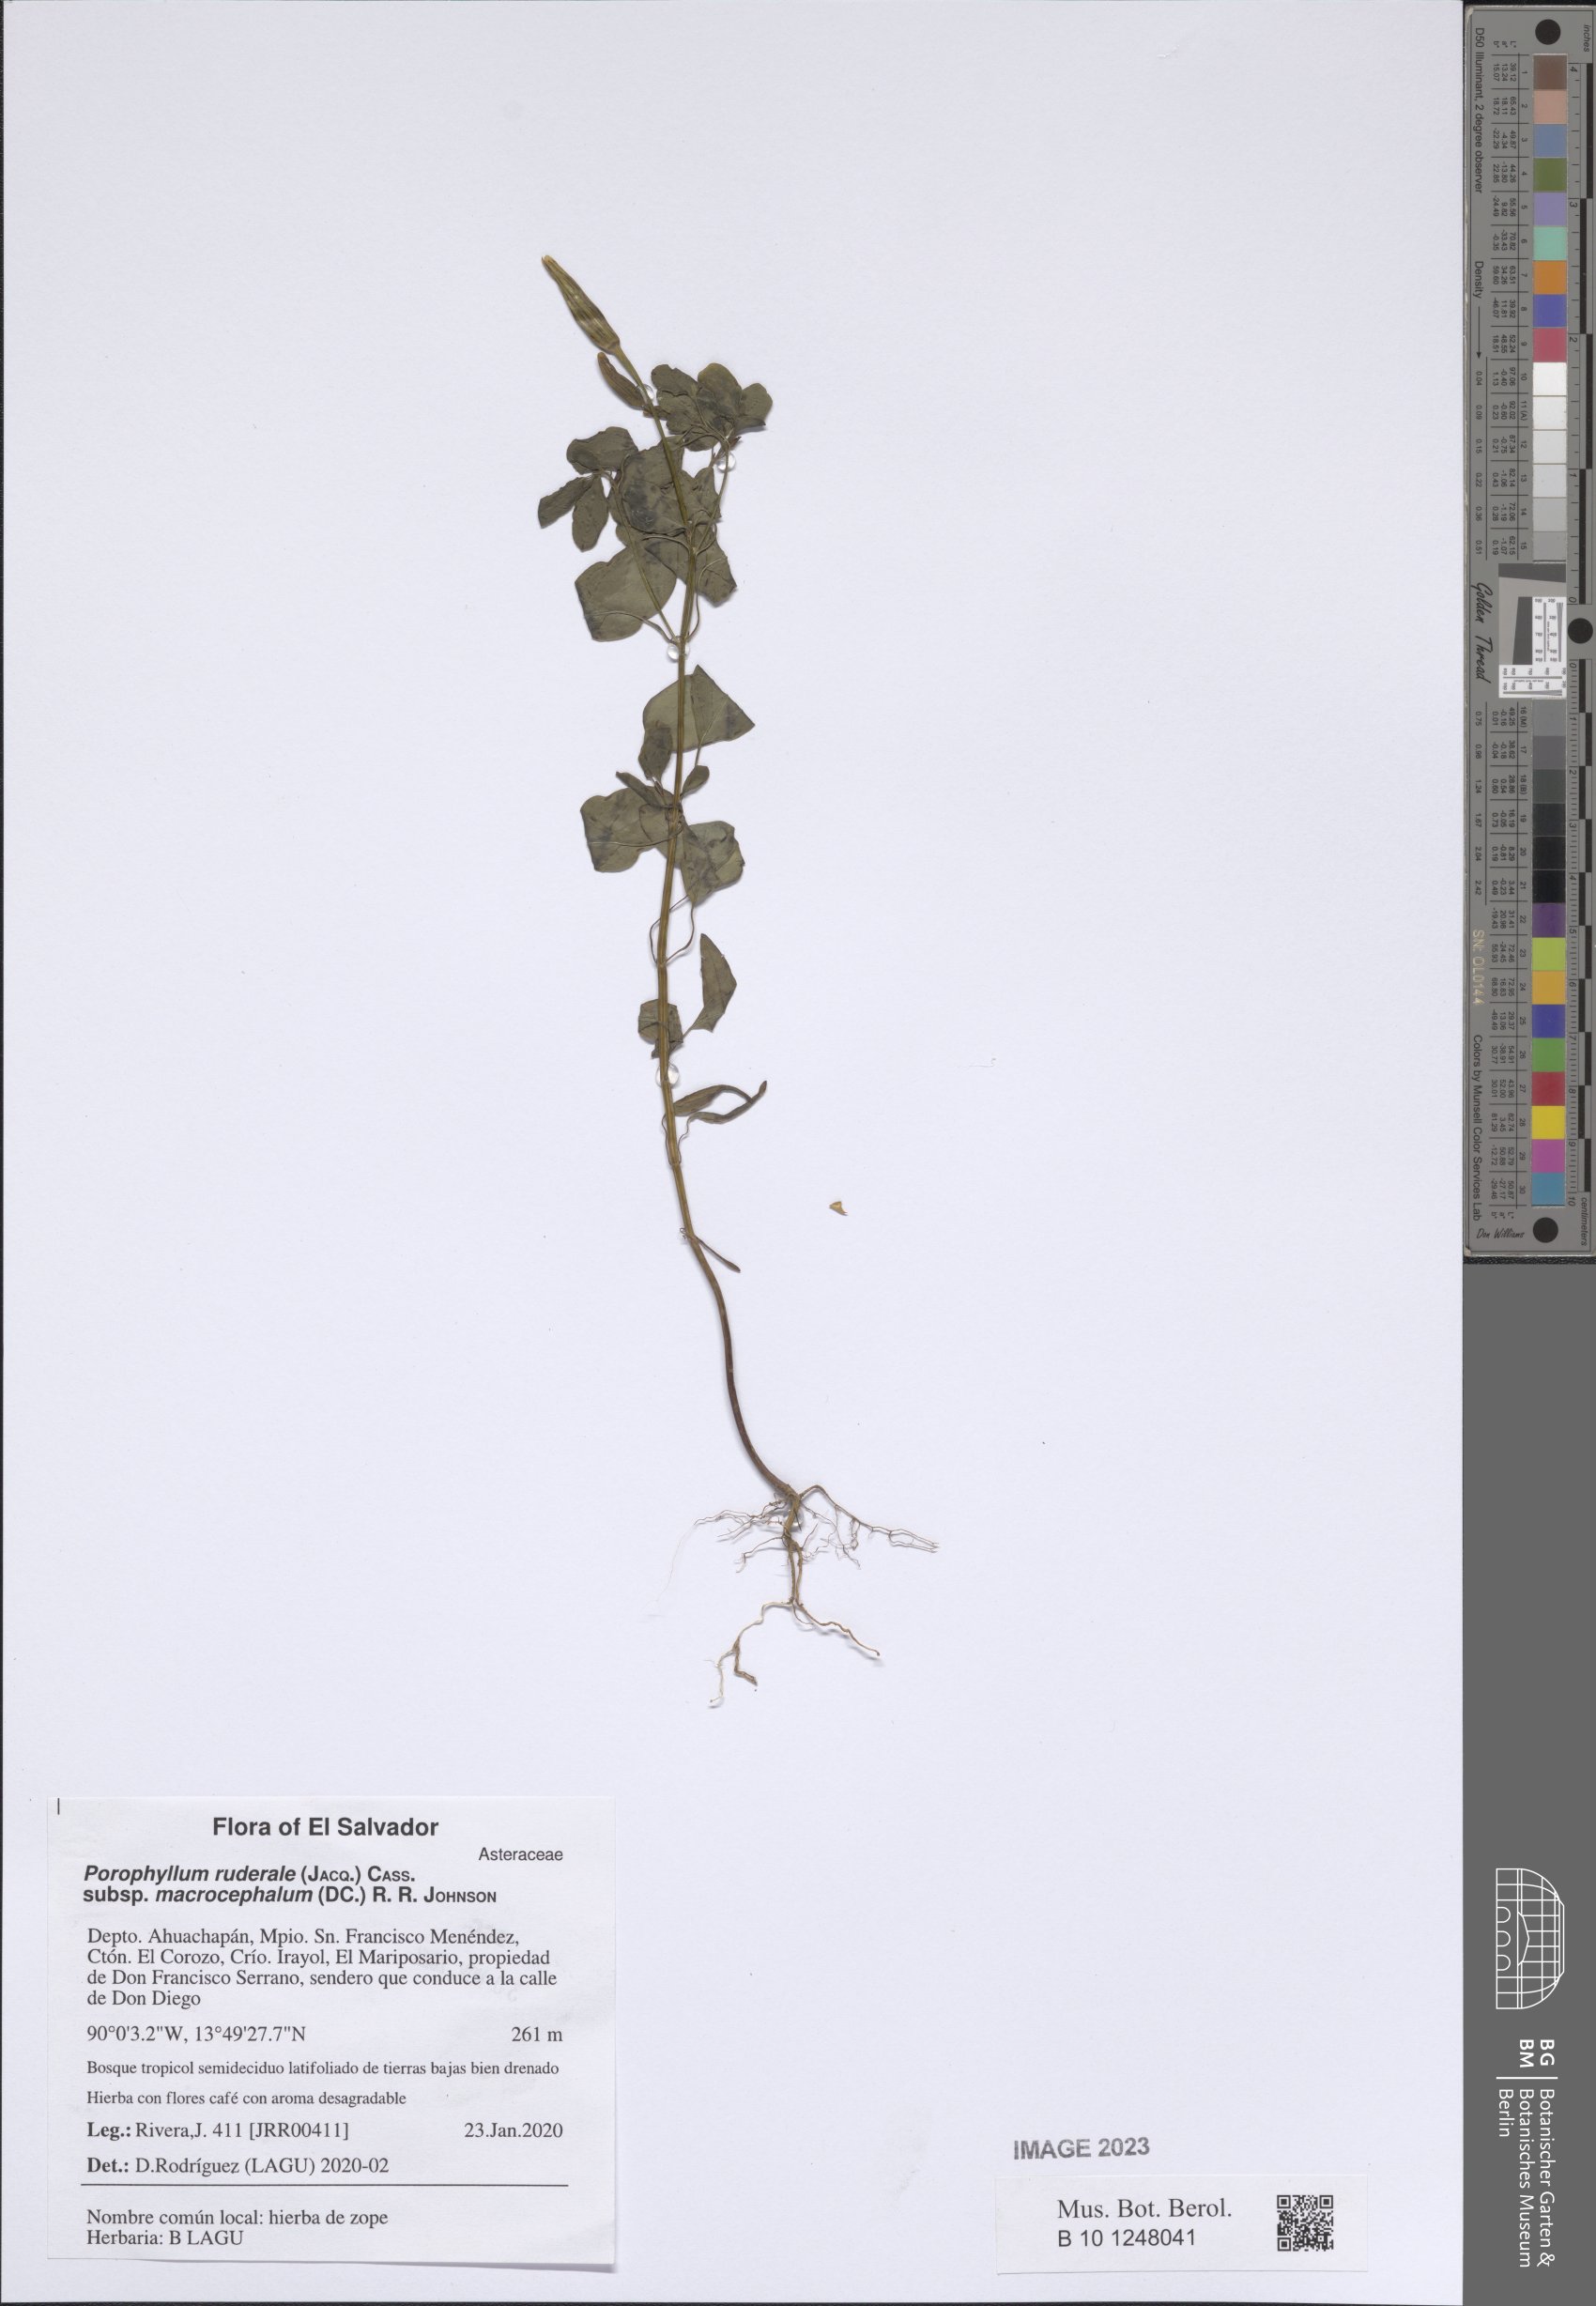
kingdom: Plantae
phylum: Tracheophyta
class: Magnoliopsida
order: Asterales
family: Asteraceae
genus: Porophyllum
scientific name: Porophyllum ruderale
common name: Yerba porosa
